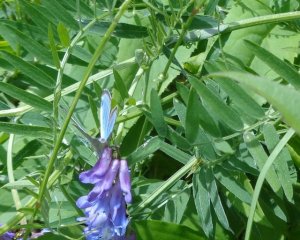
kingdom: Animalia
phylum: Arthropoda
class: Insecta
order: Lepidoptera
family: Lycaenidae
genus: Glaucopsyche
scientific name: Glaucopsyche lygdamus
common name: Silvery Blue
